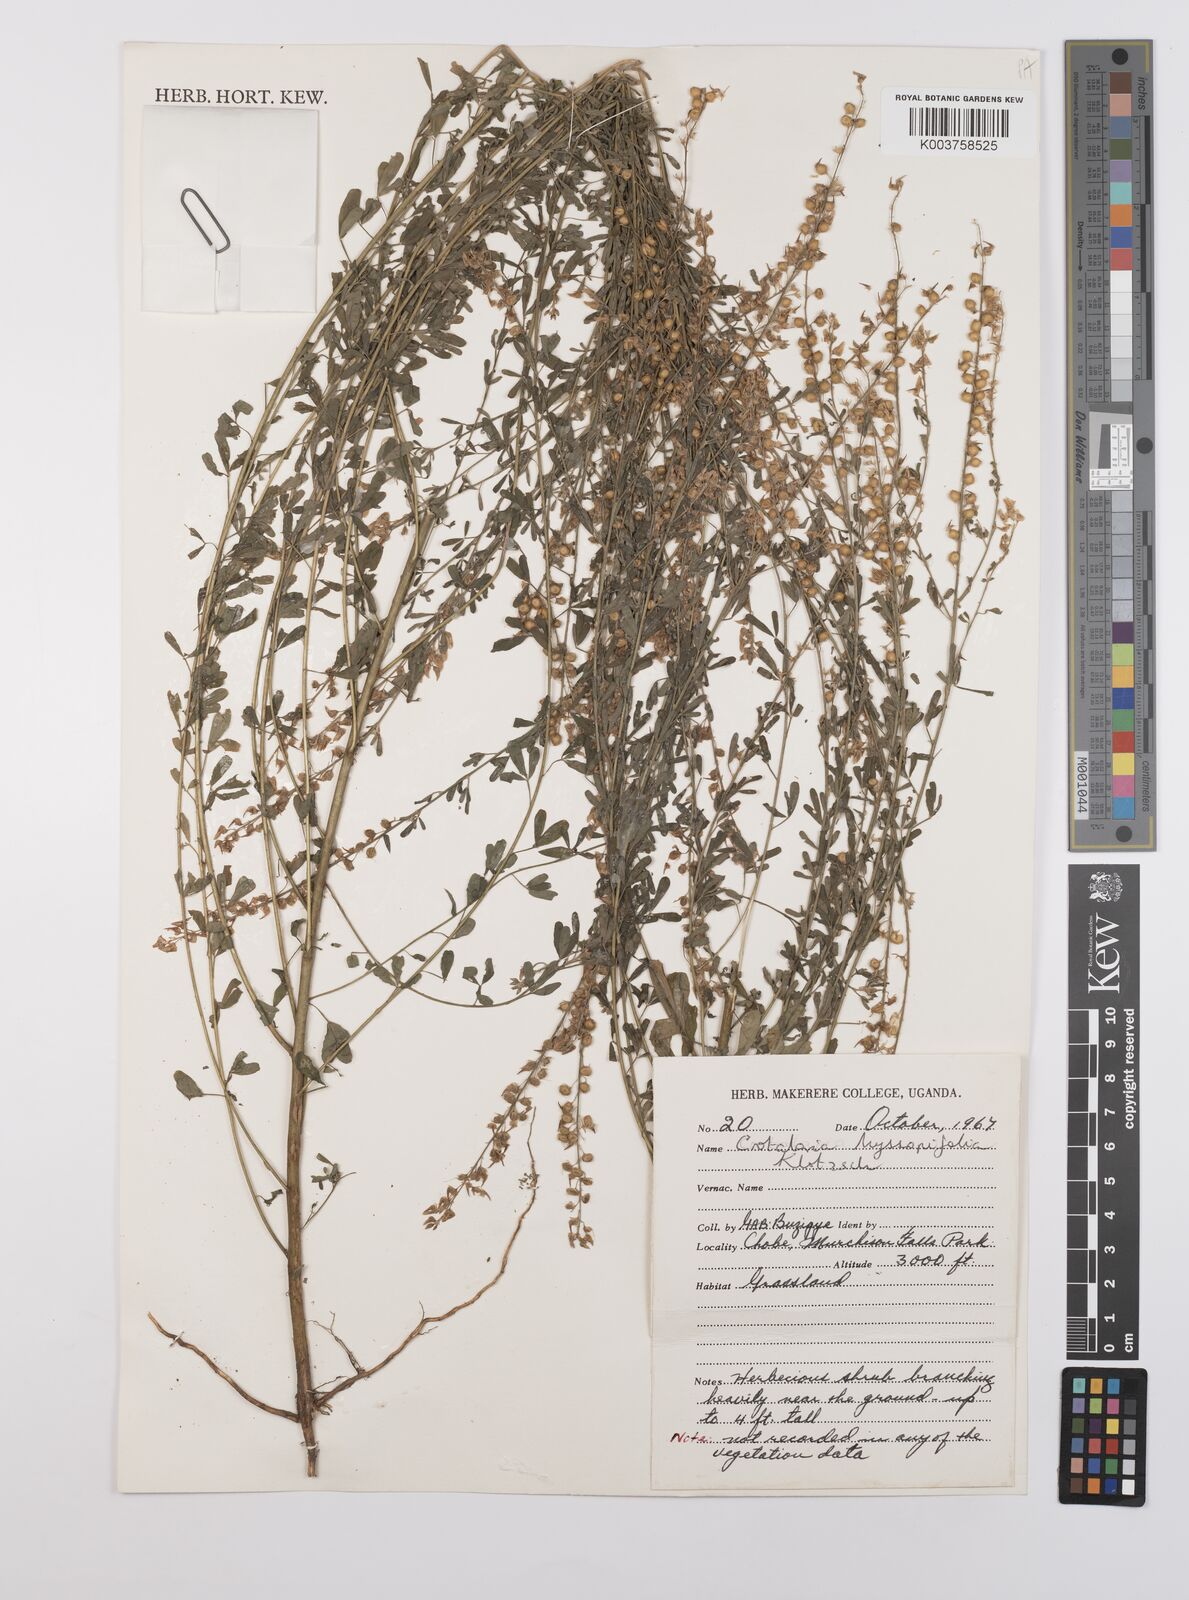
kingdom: Plantae
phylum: Tracheophyta
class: Magnoliopsida
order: Fabales
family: Fabaceae
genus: Crotalaria
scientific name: Crotalaria hyssopifolia
